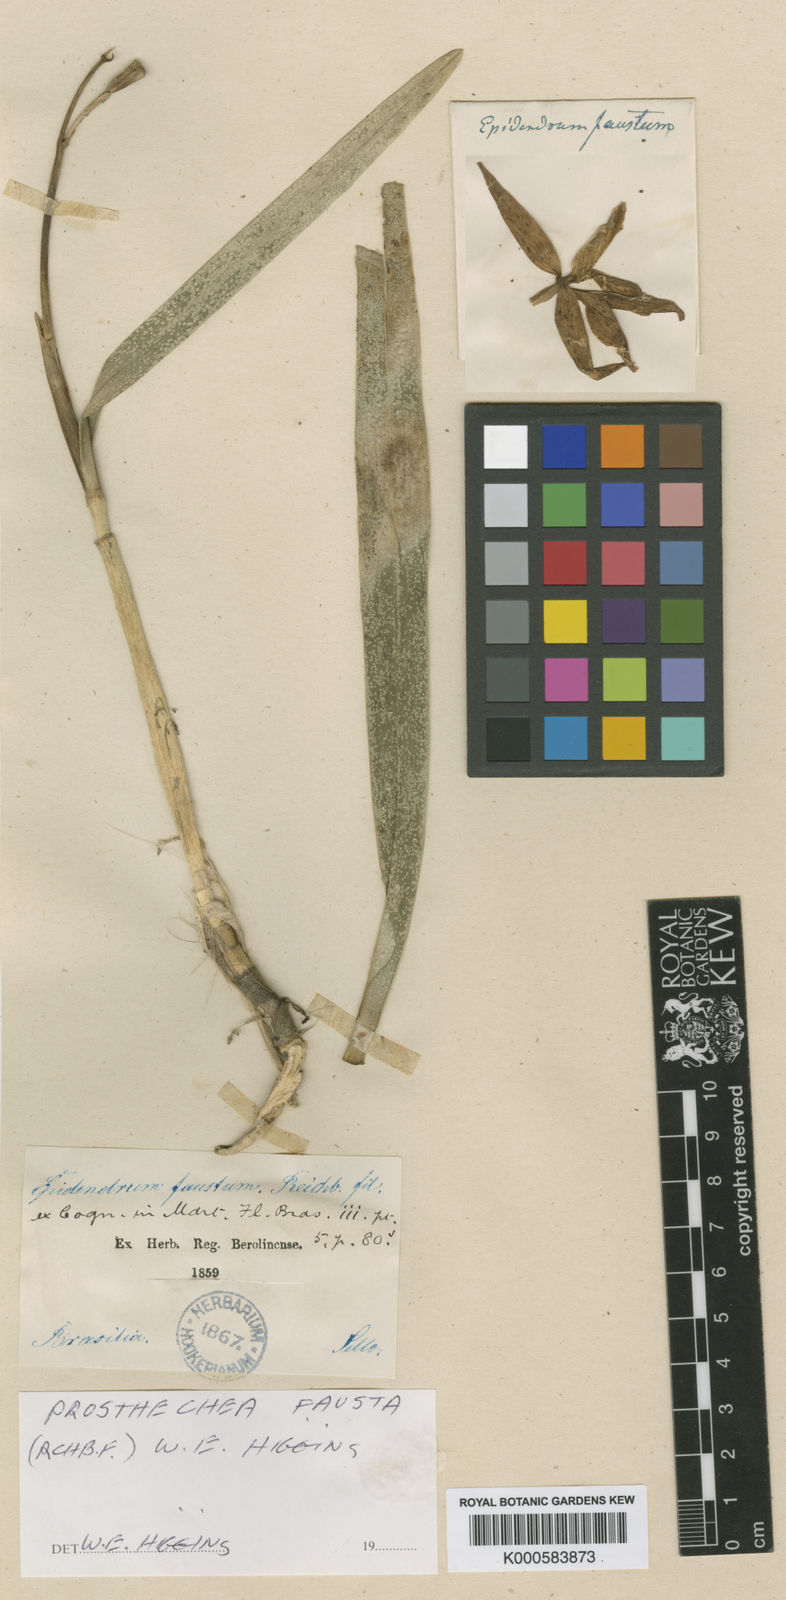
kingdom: Plantae
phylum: Tracheophyta
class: Liliopsida
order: Asparagales
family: Orchidaceae
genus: Prosthechea
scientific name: Prosthechea fausta
